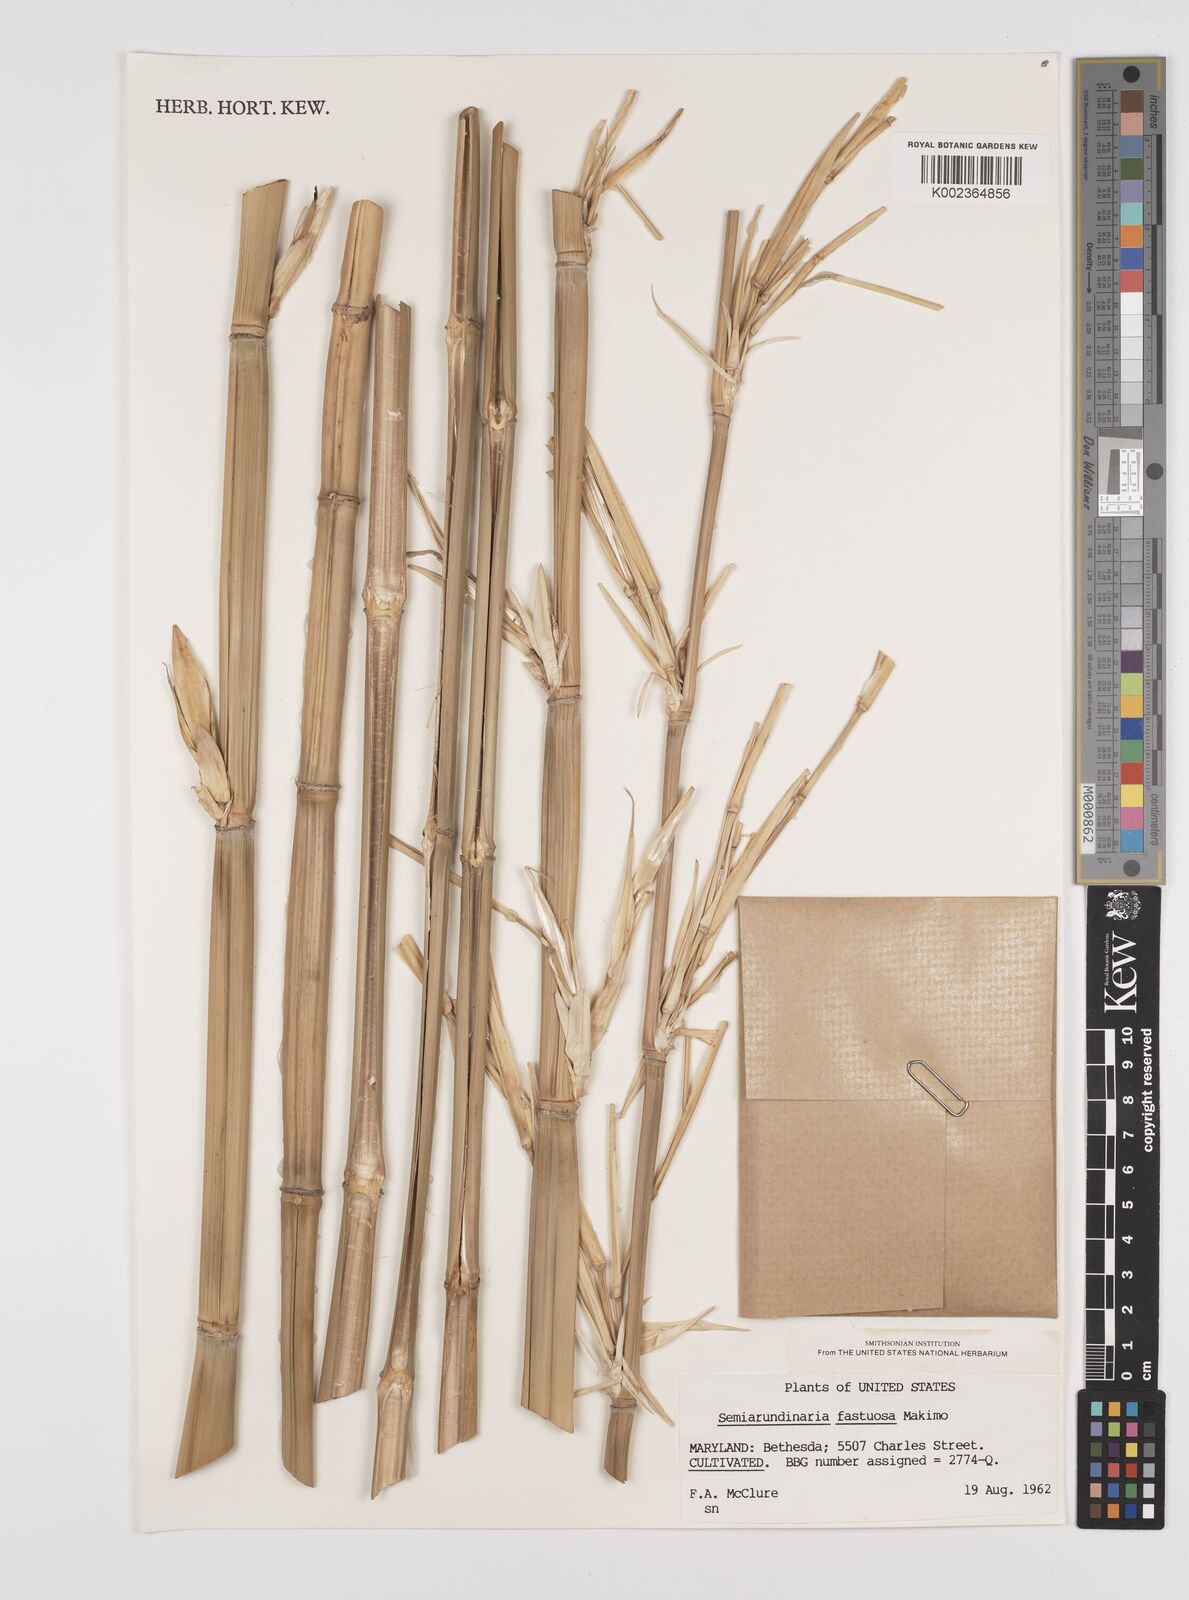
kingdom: Plantae
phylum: Tracheophyta
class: Liliopsida
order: Poales
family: Poaceae
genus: Semiarundinaria
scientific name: Semiarundinaria fastuosa
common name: Narihira bamboo
